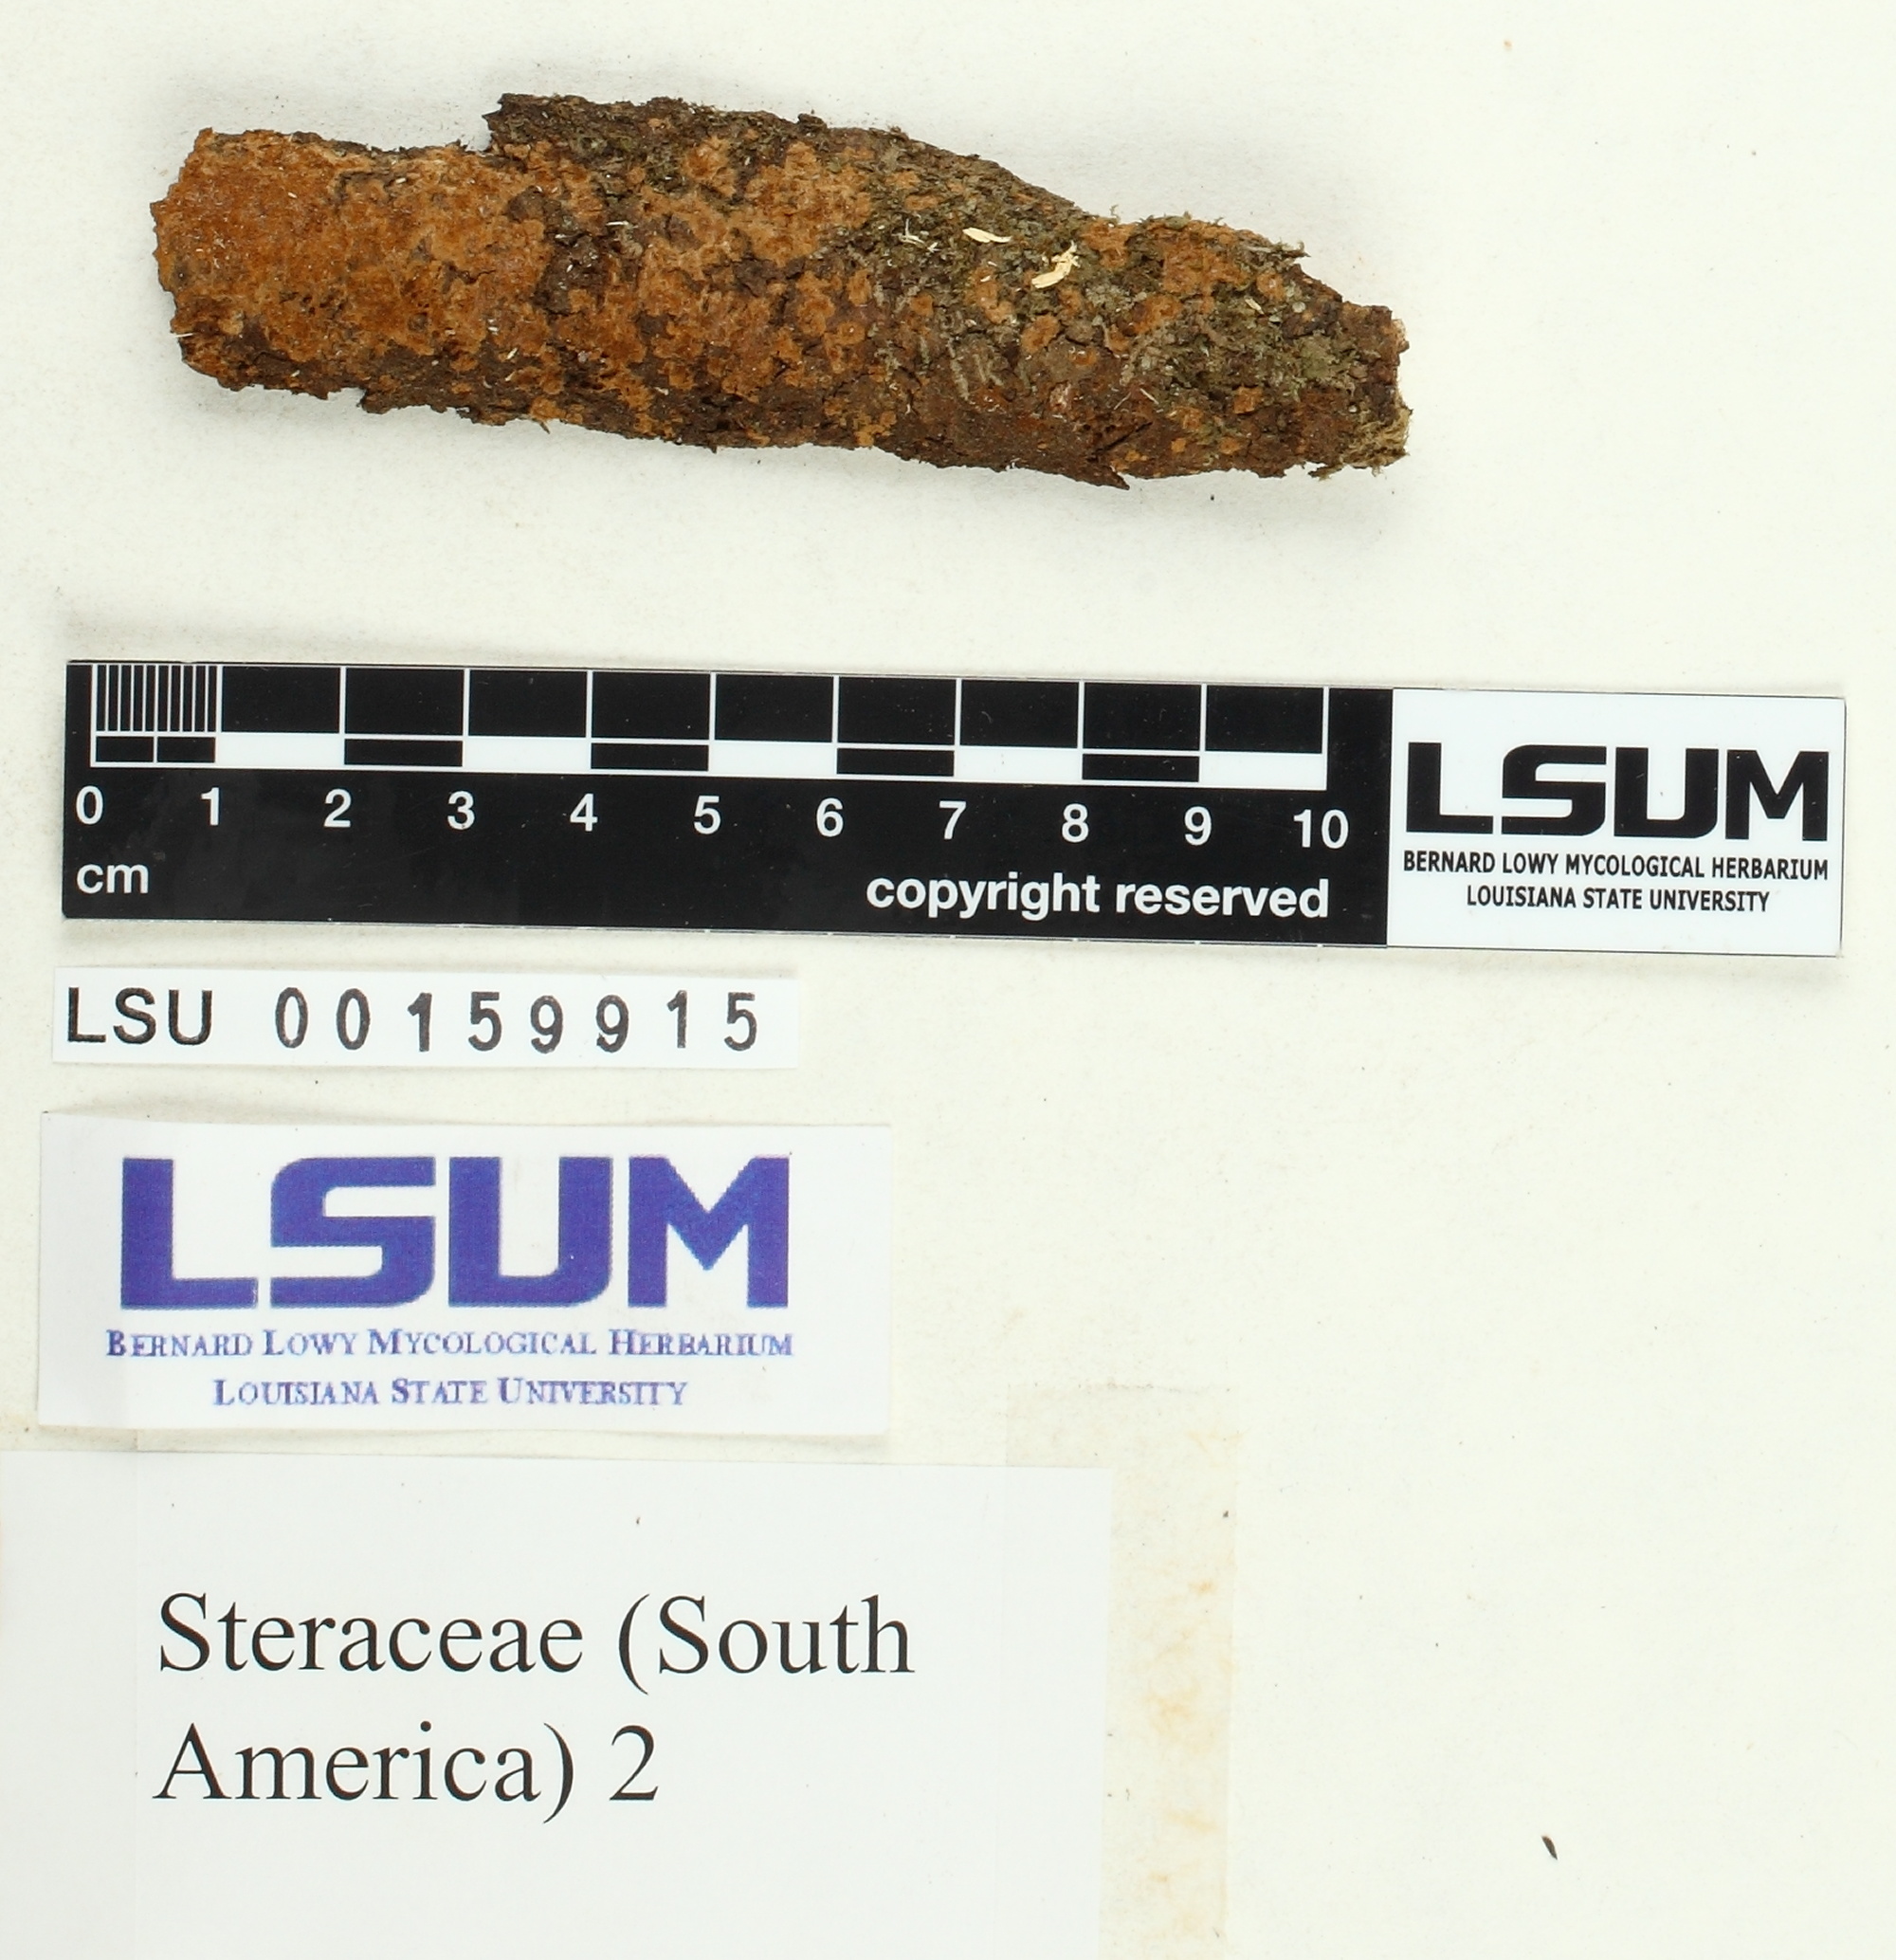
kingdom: Fungi
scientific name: Fungi
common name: Fungi
